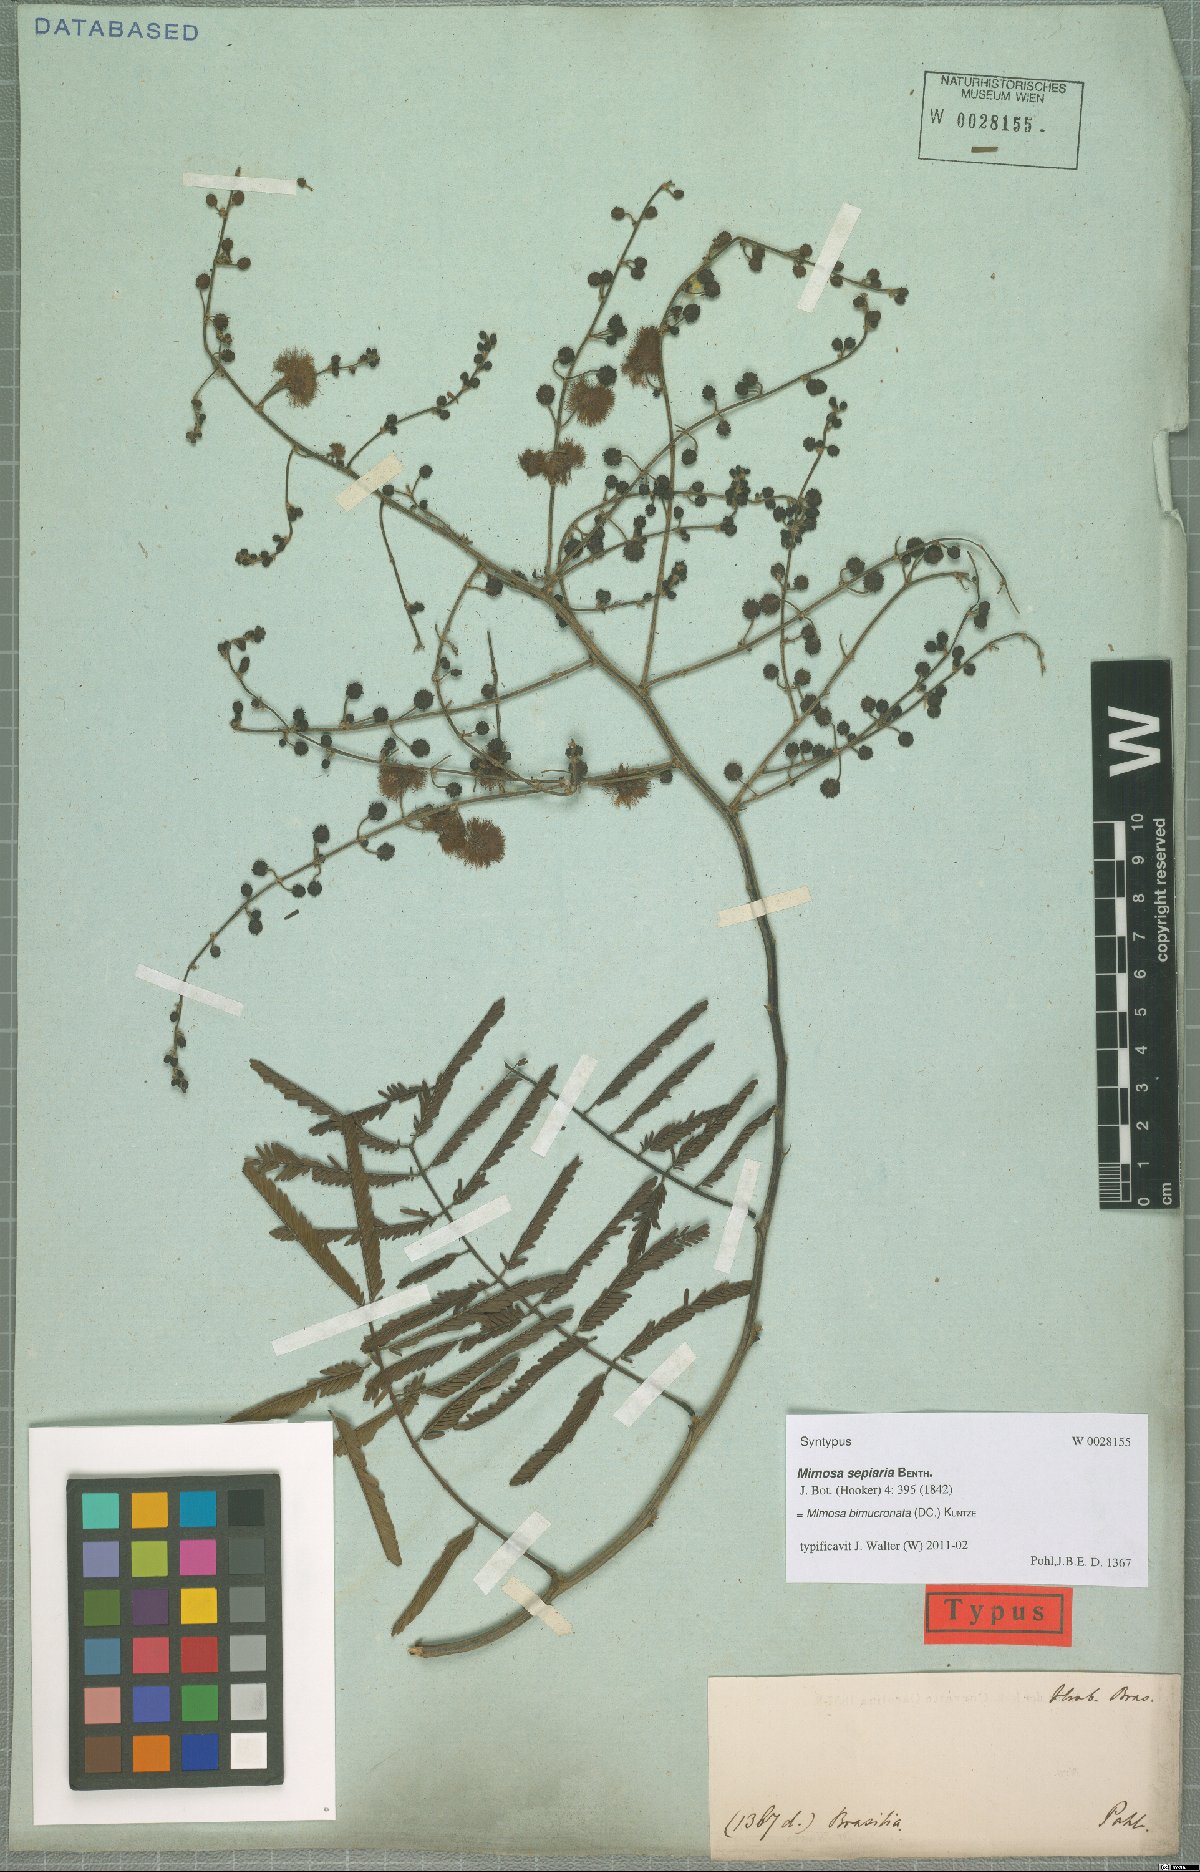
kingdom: Plantae
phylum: Tracheophyta
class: Magnoliopsida
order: Fabales
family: Fabaceae
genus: Mimosa
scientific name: Mimosa bimucronata
